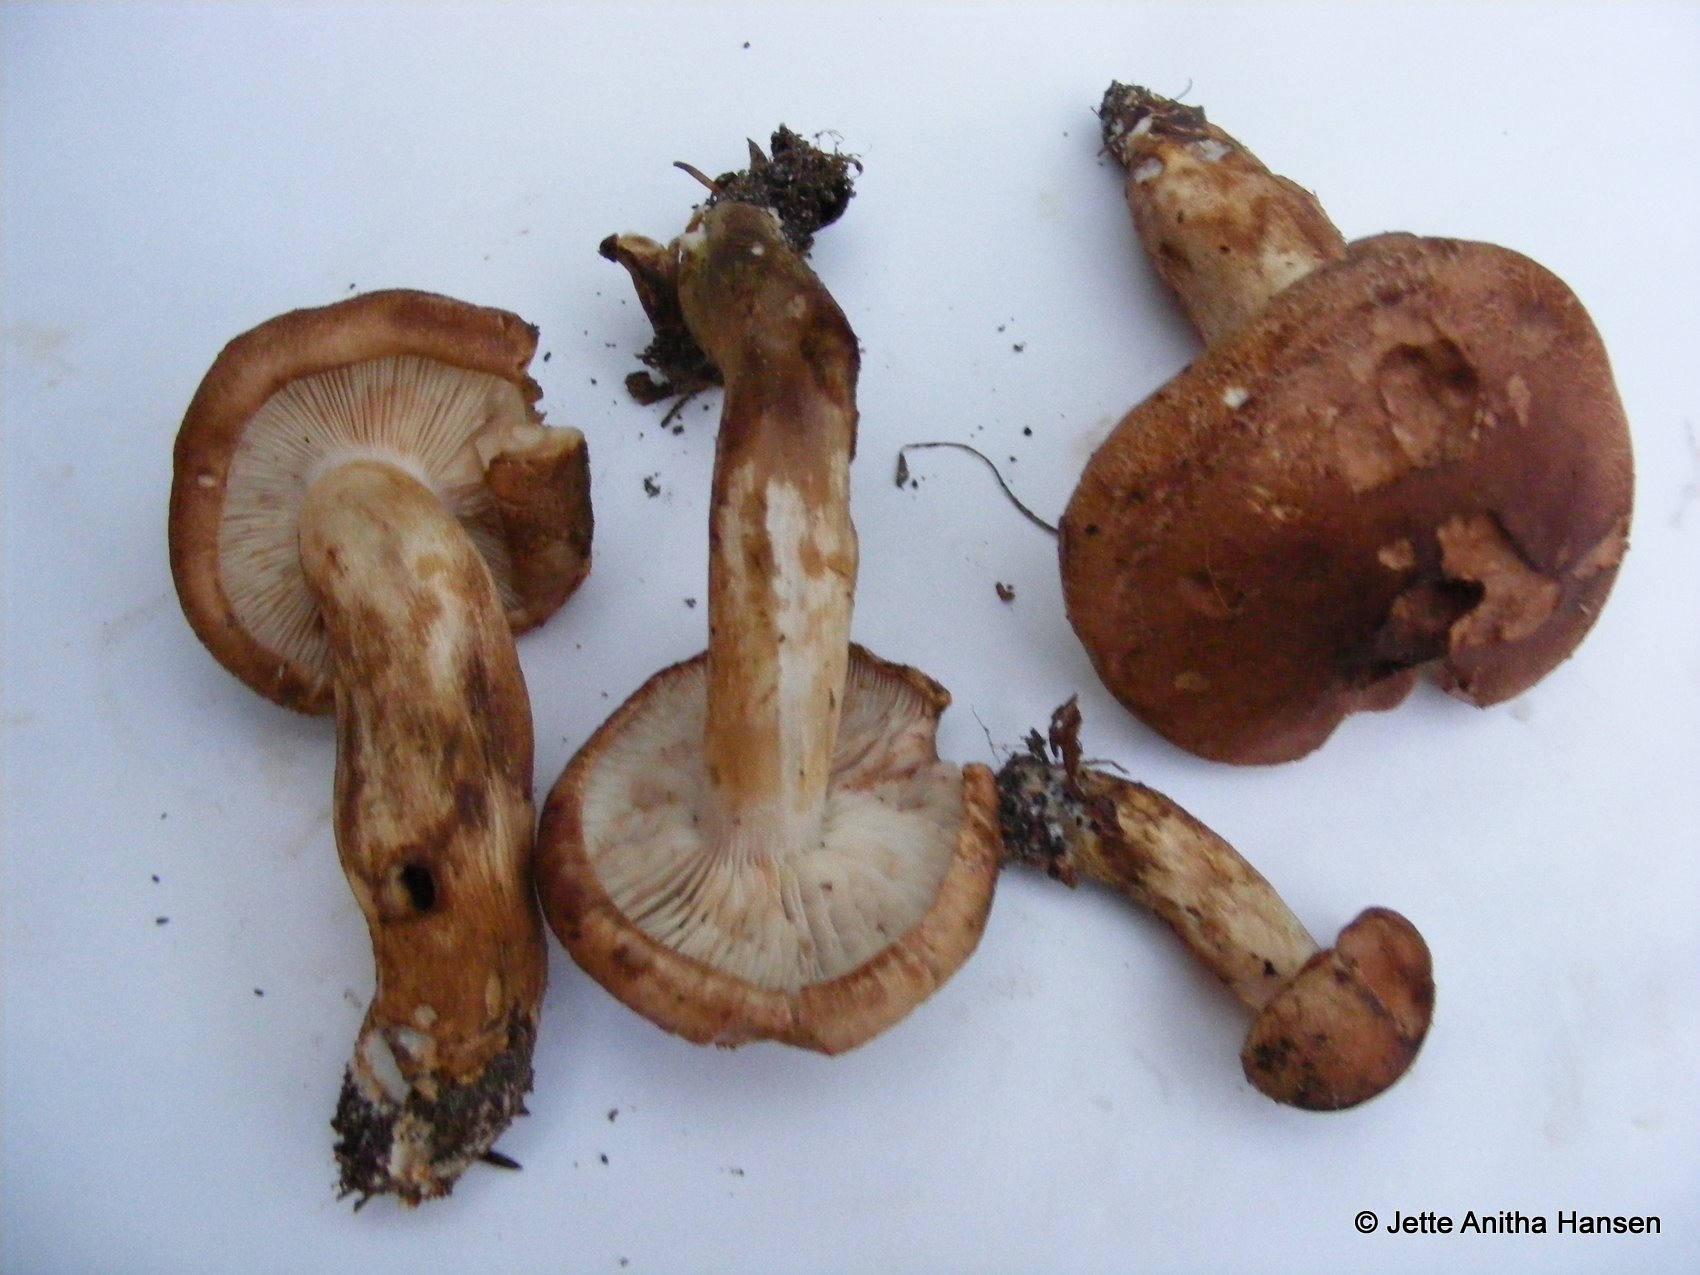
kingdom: Fungi
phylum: Basidiomycota
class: Agaricomycetes
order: Agaricales
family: Tricholomataceae
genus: Tricholoma
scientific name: Tricholoma stans
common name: stolt ridderhat
